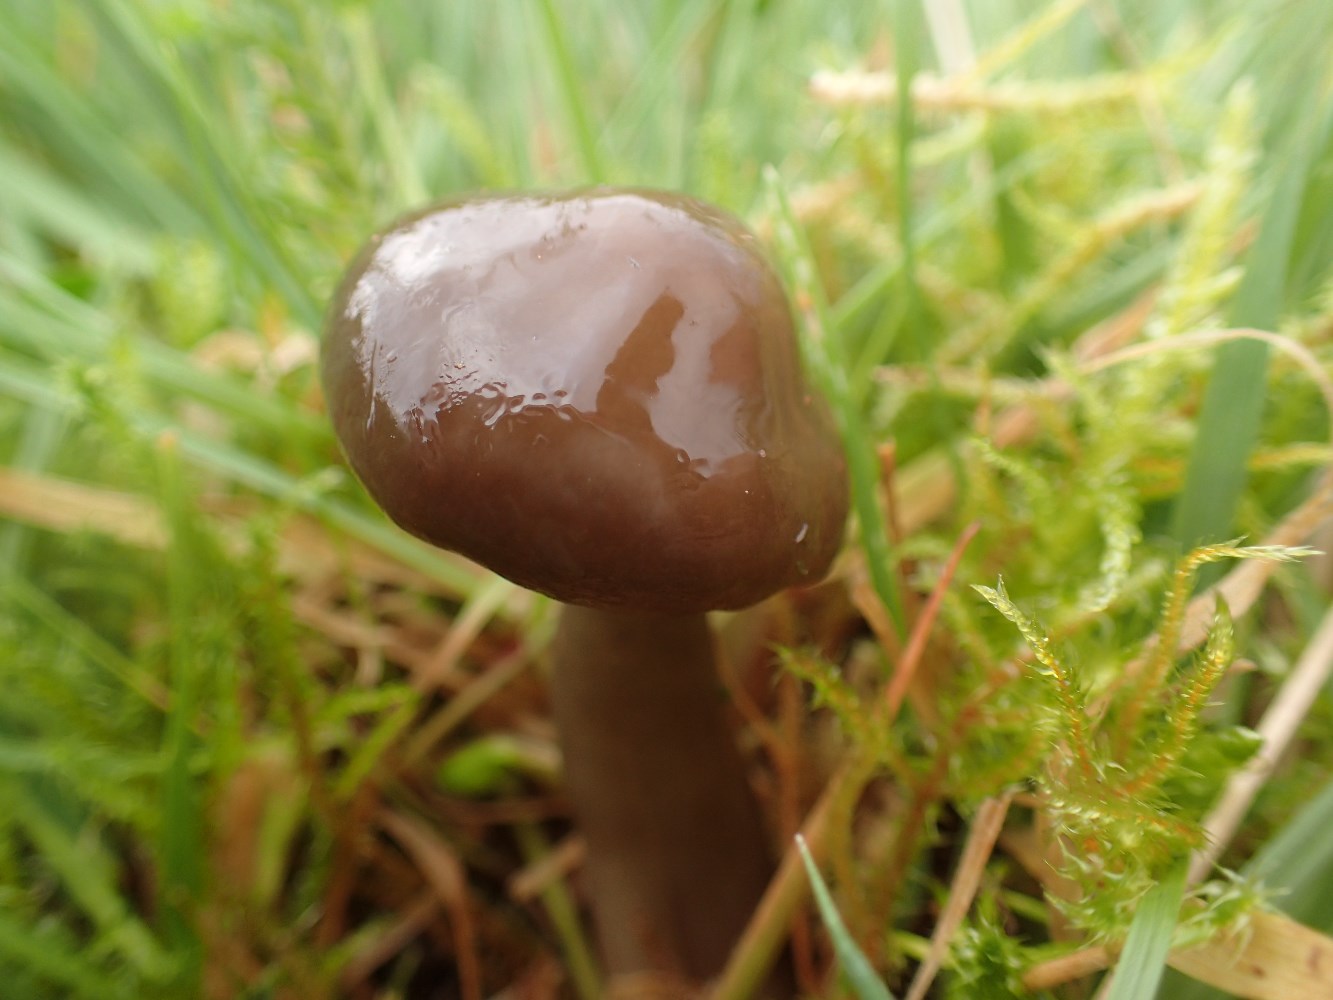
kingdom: Fungi
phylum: Basidiomycota
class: Agaricomycetes
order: Agaricales
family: Hygrophoraceae
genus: Gliophorus
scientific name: Gliophorus irrigatus
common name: slimet vokshat
